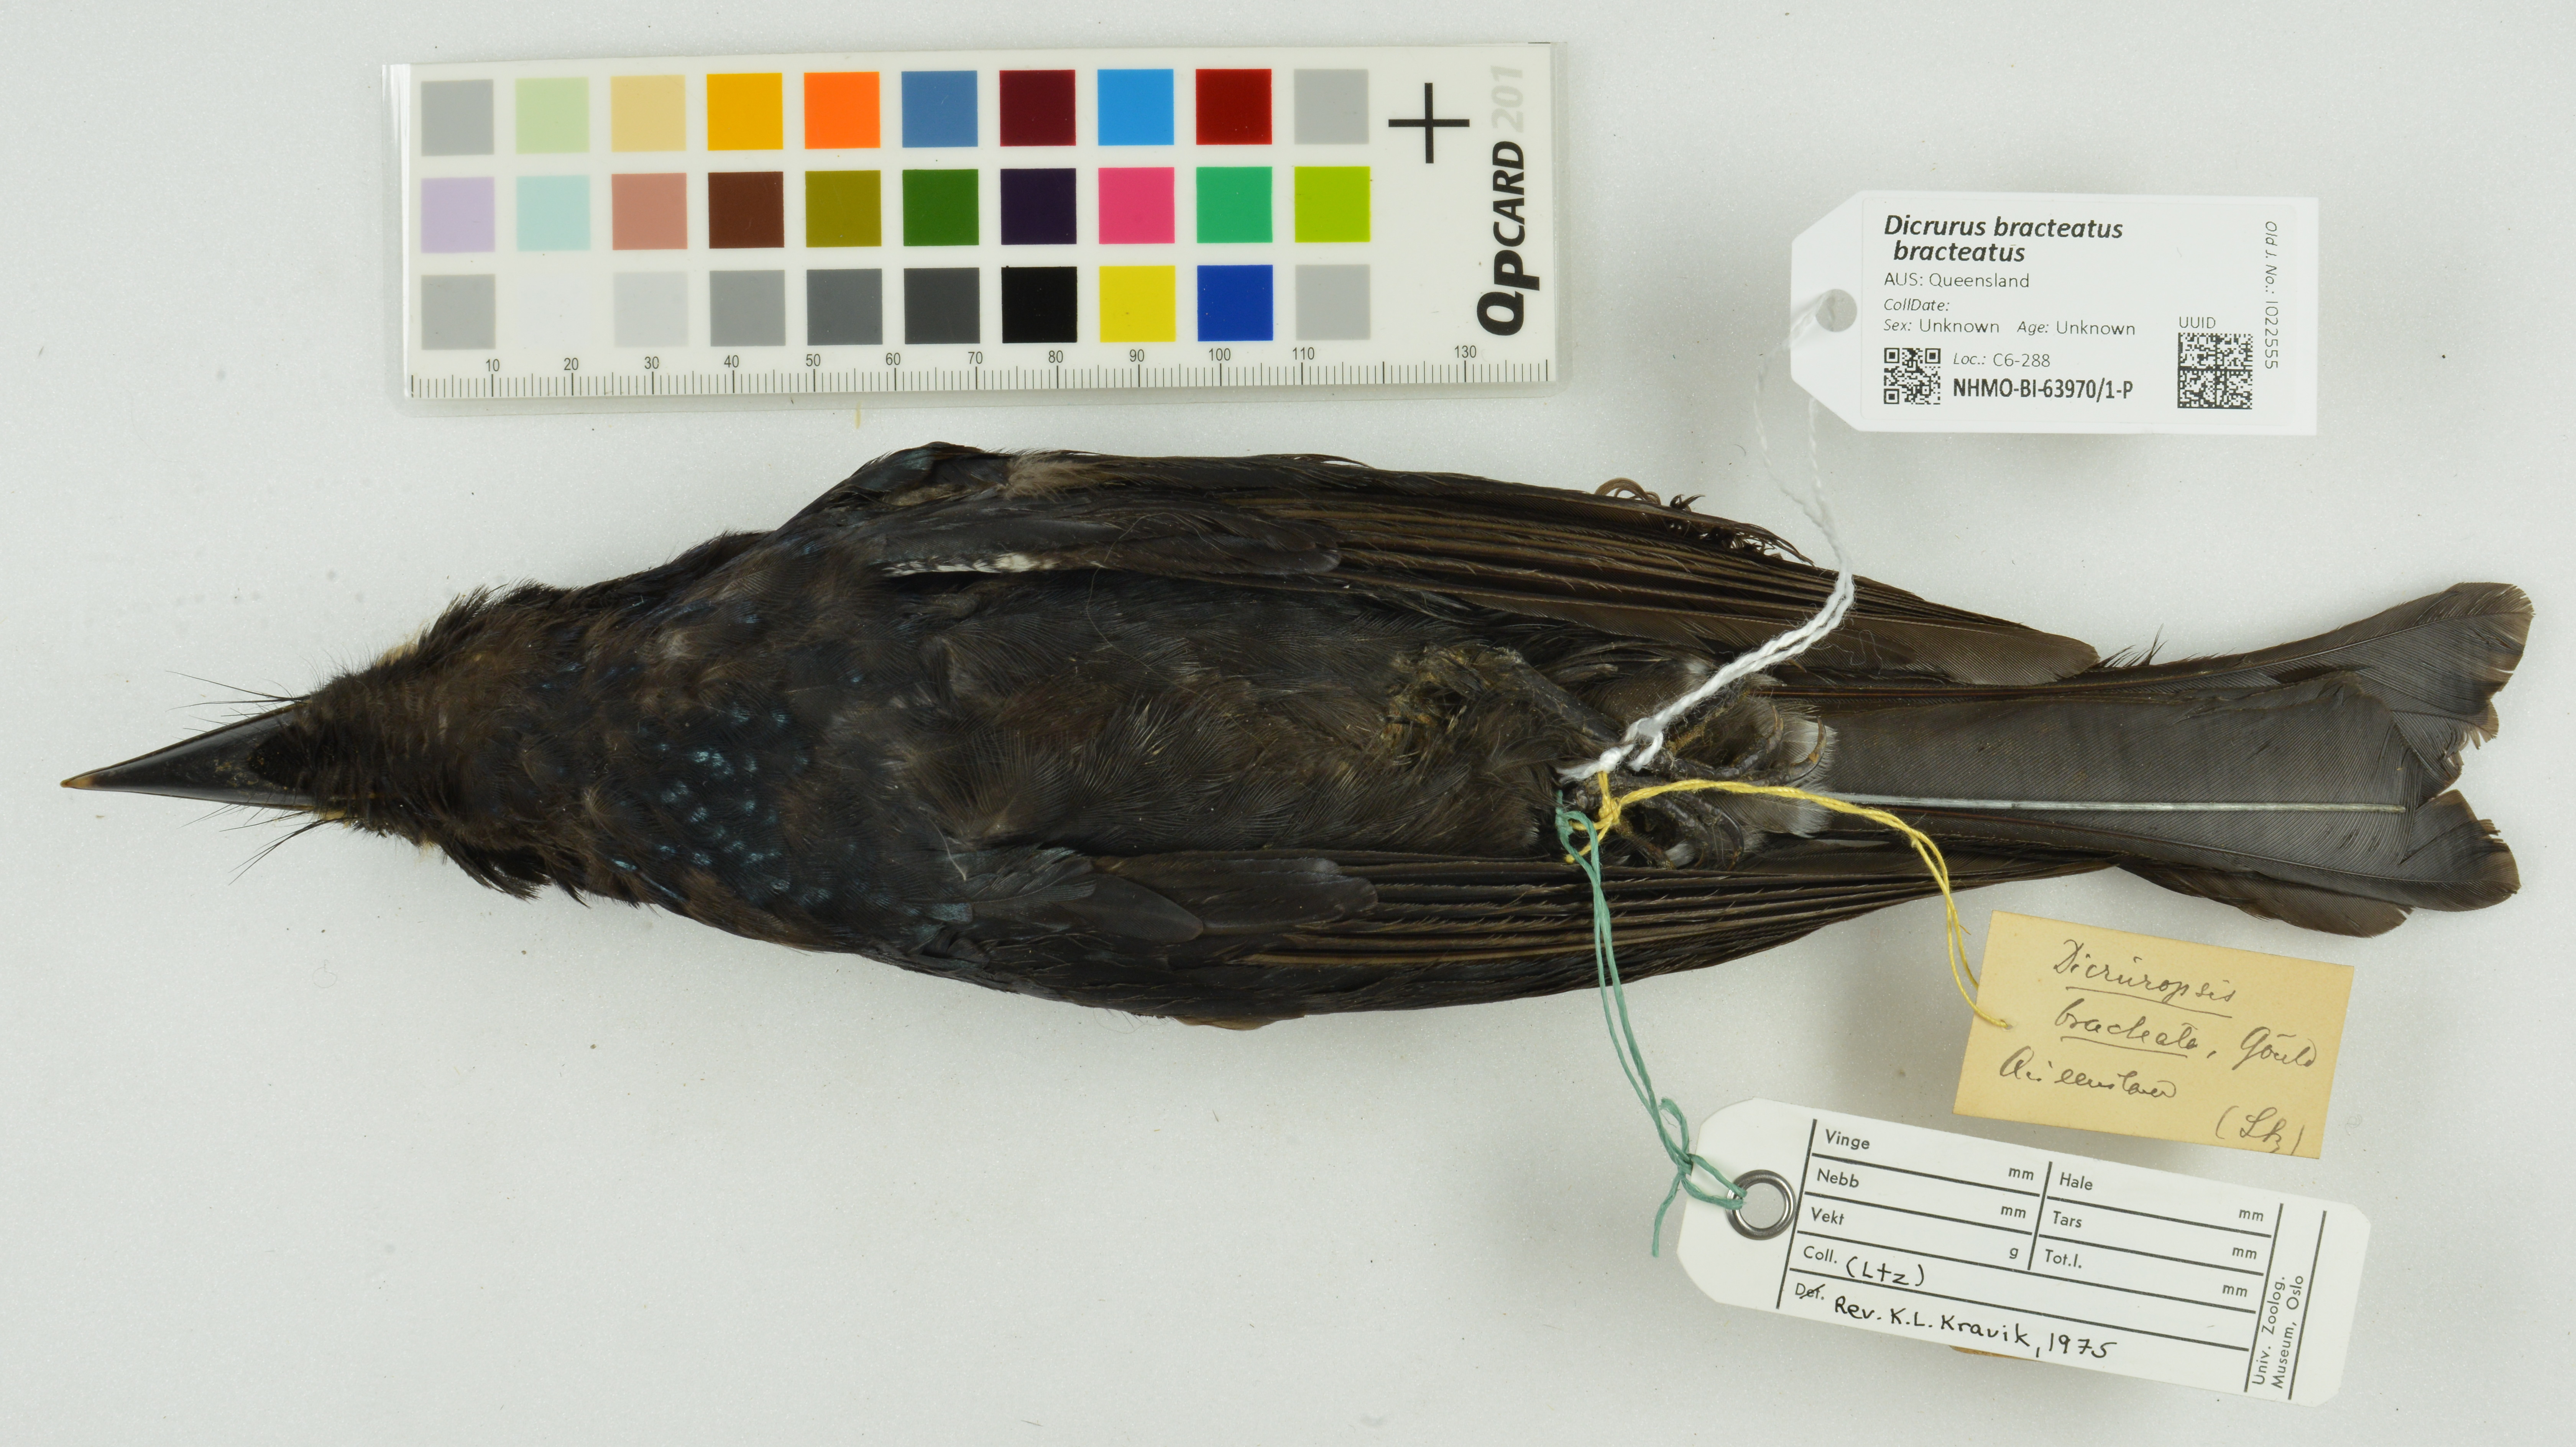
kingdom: Animalia
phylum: Chordata
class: Aves
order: Passeriformes
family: Dicruridae
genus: Dicrurus
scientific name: Dicrurus bracteatus
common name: Spangled drongo
